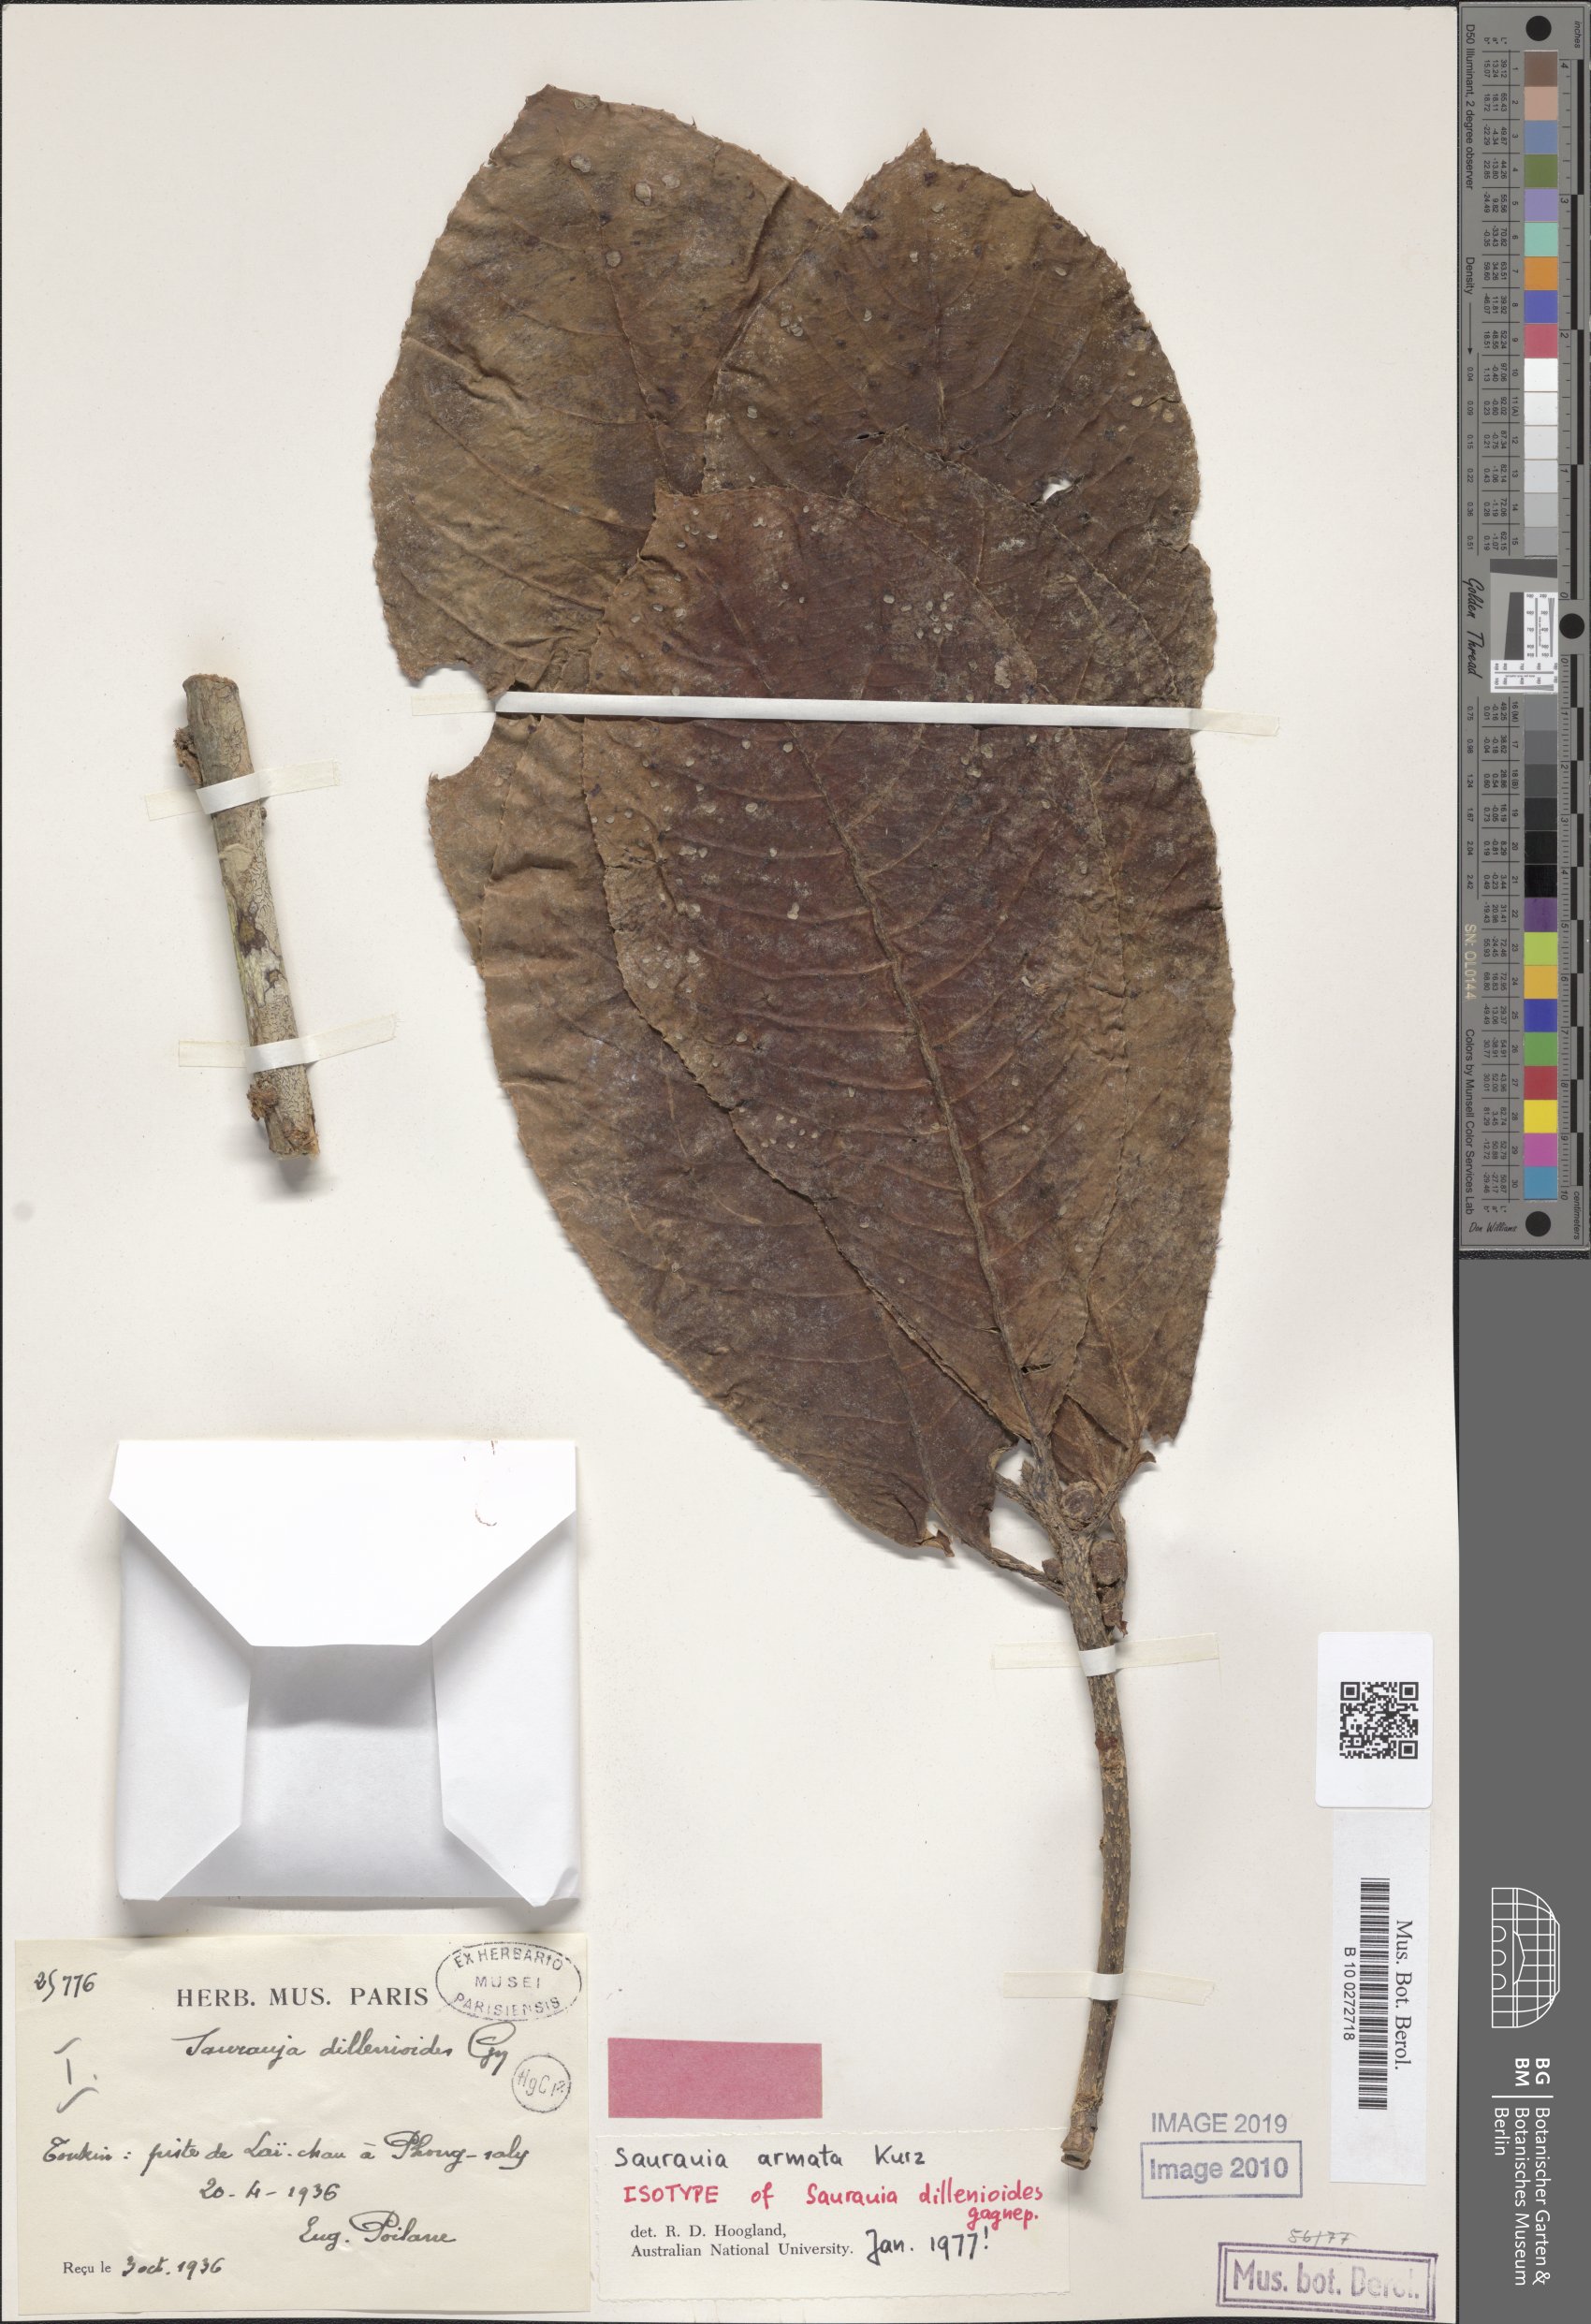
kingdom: Plantae
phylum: Tracheophyta
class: Magnoliopsida
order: Ericales
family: Actinidiaceae
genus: Saurauia
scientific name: Saurauia armata
